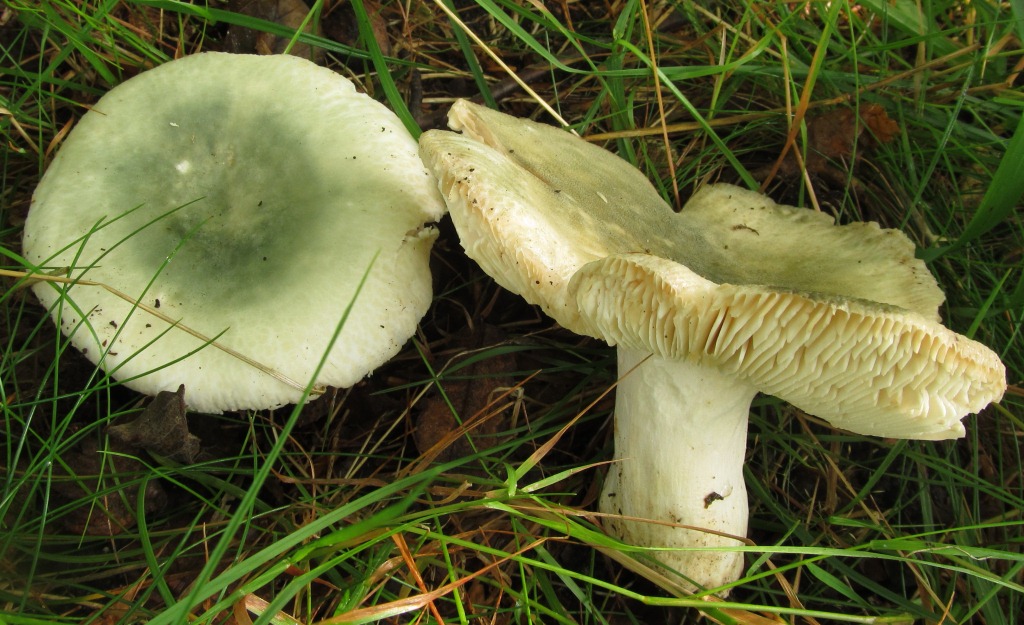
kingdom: Fungi
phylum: Basidiomycota
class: Agaricomycetes
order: Russulales
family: Russulaceae
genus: Russula
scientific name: Russula virescens
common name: spanskgrøn skørhat
